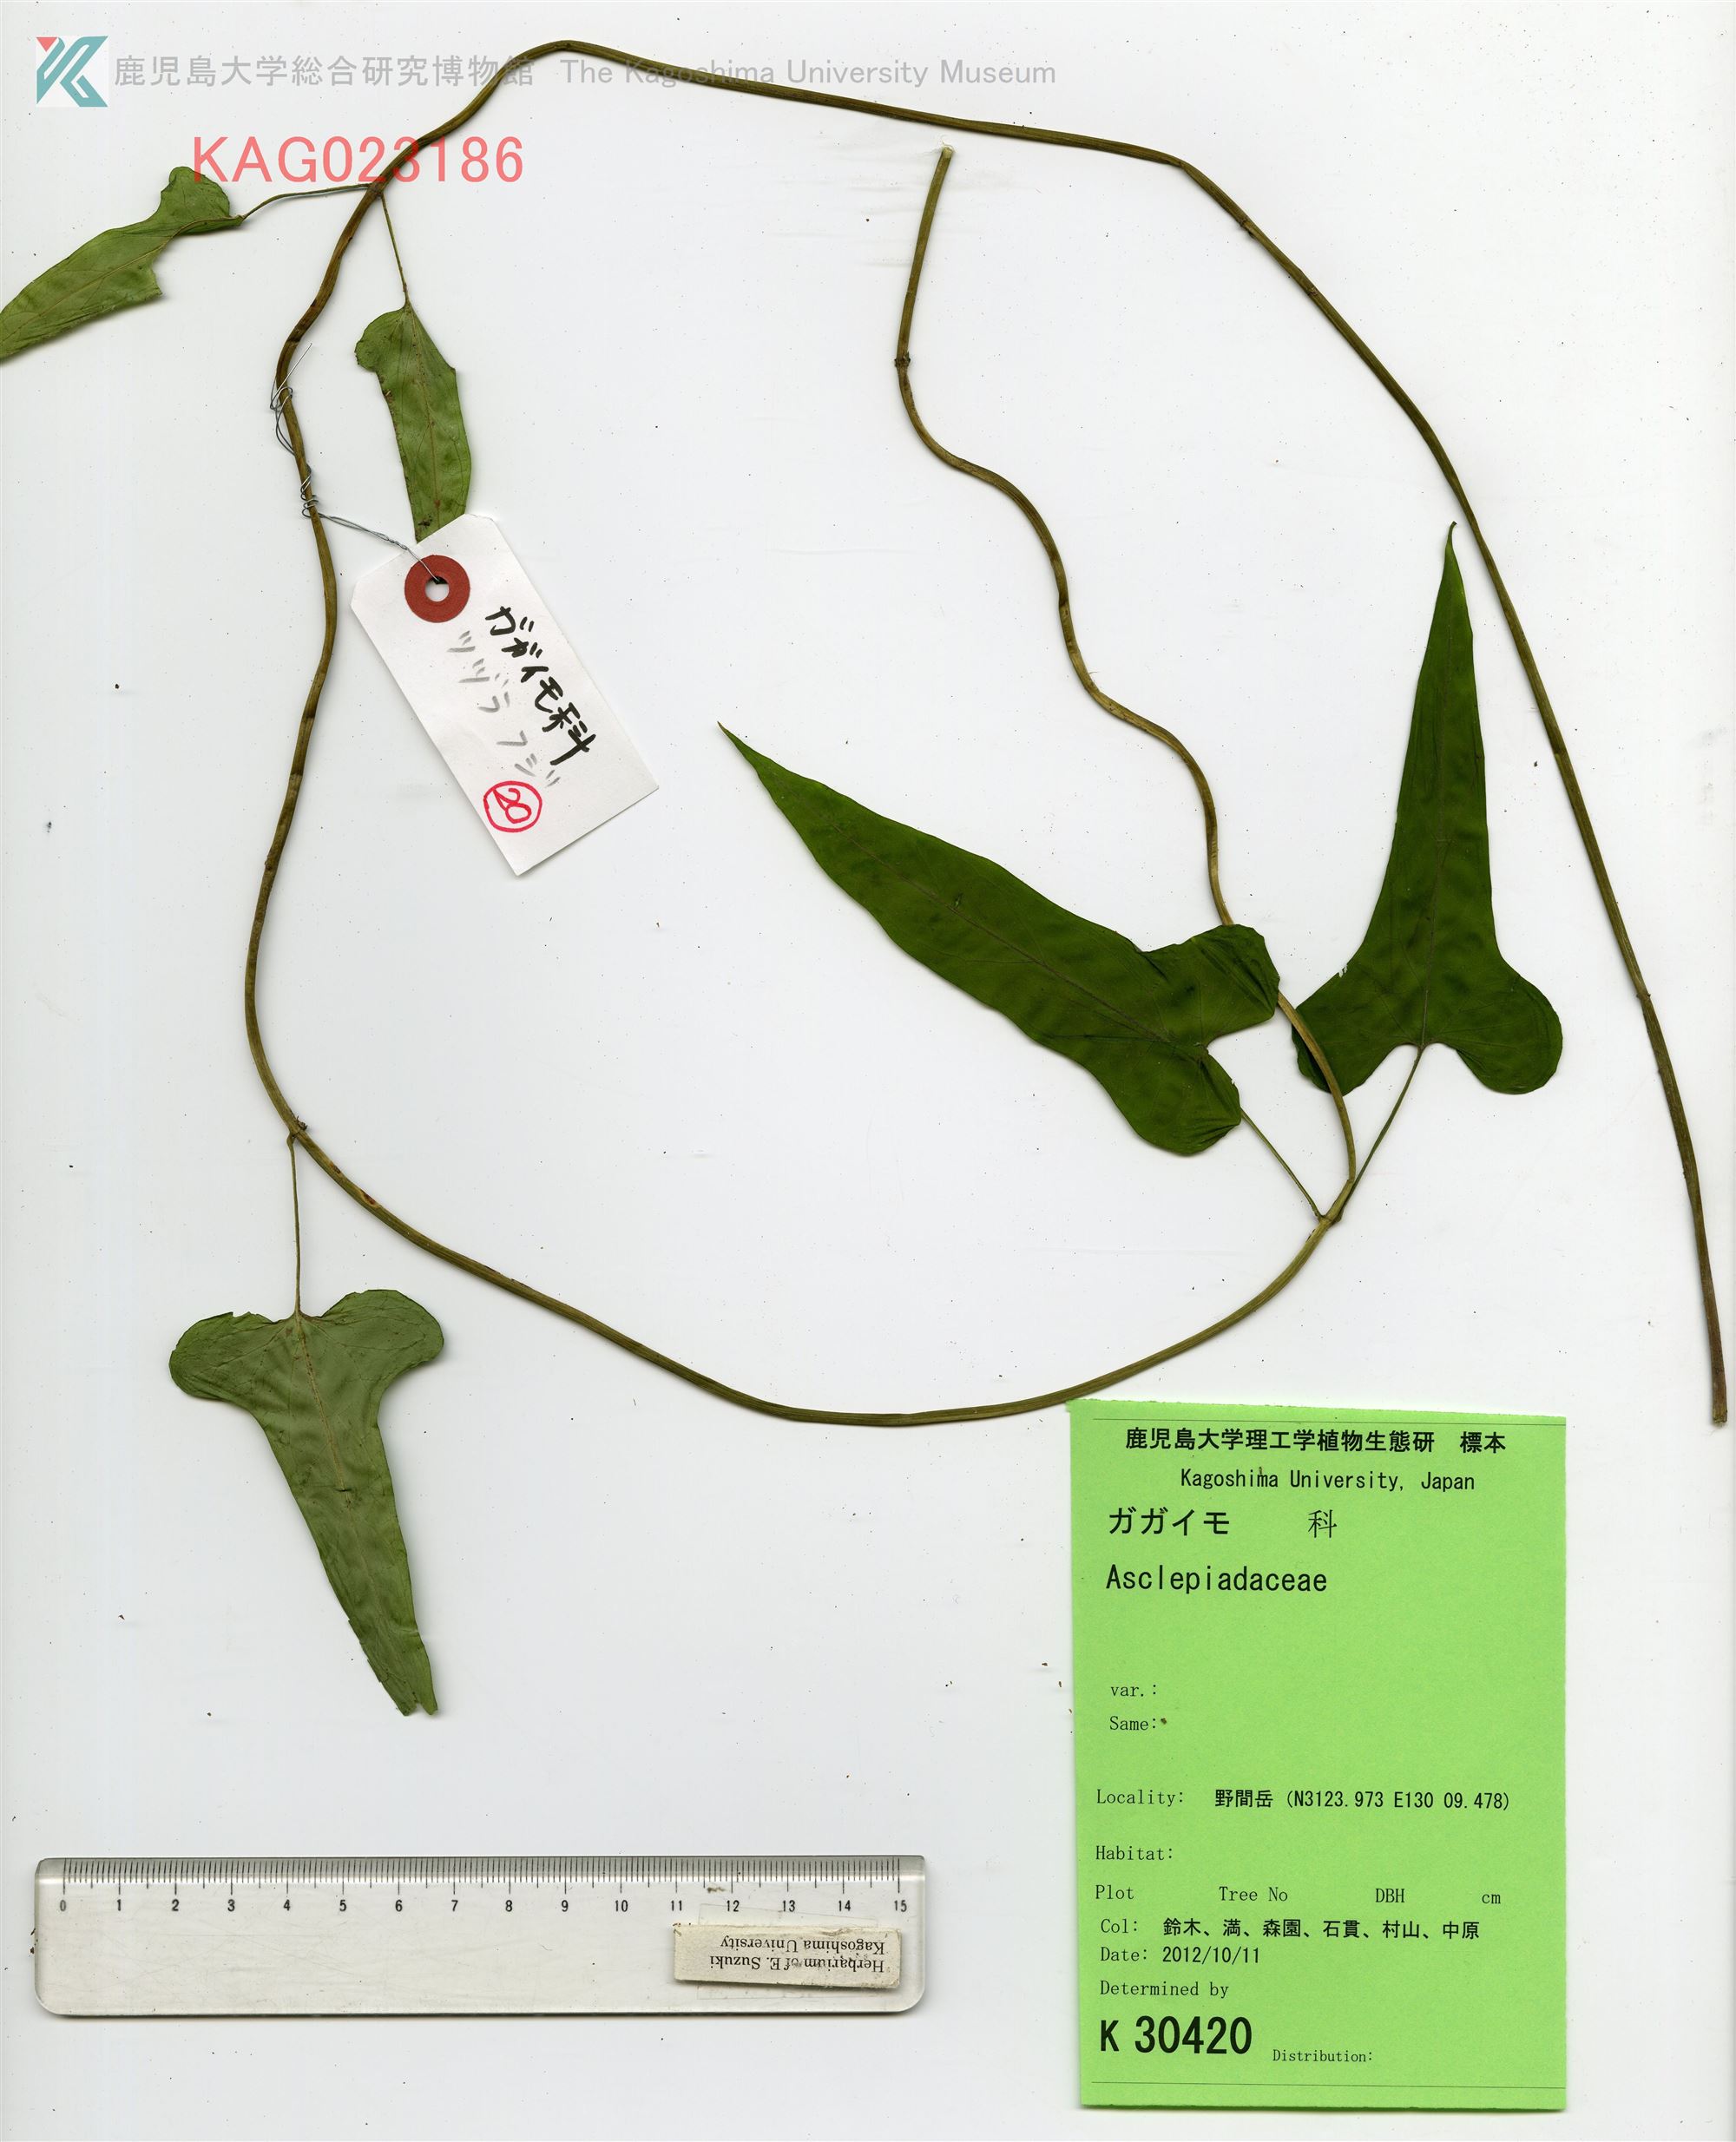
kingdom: Plantae
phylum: Tracheophyta
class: Magnoliopsida
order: Gentianales
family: Apocynaceae
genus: Vincetoxicum
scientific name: Vincetoxicum
